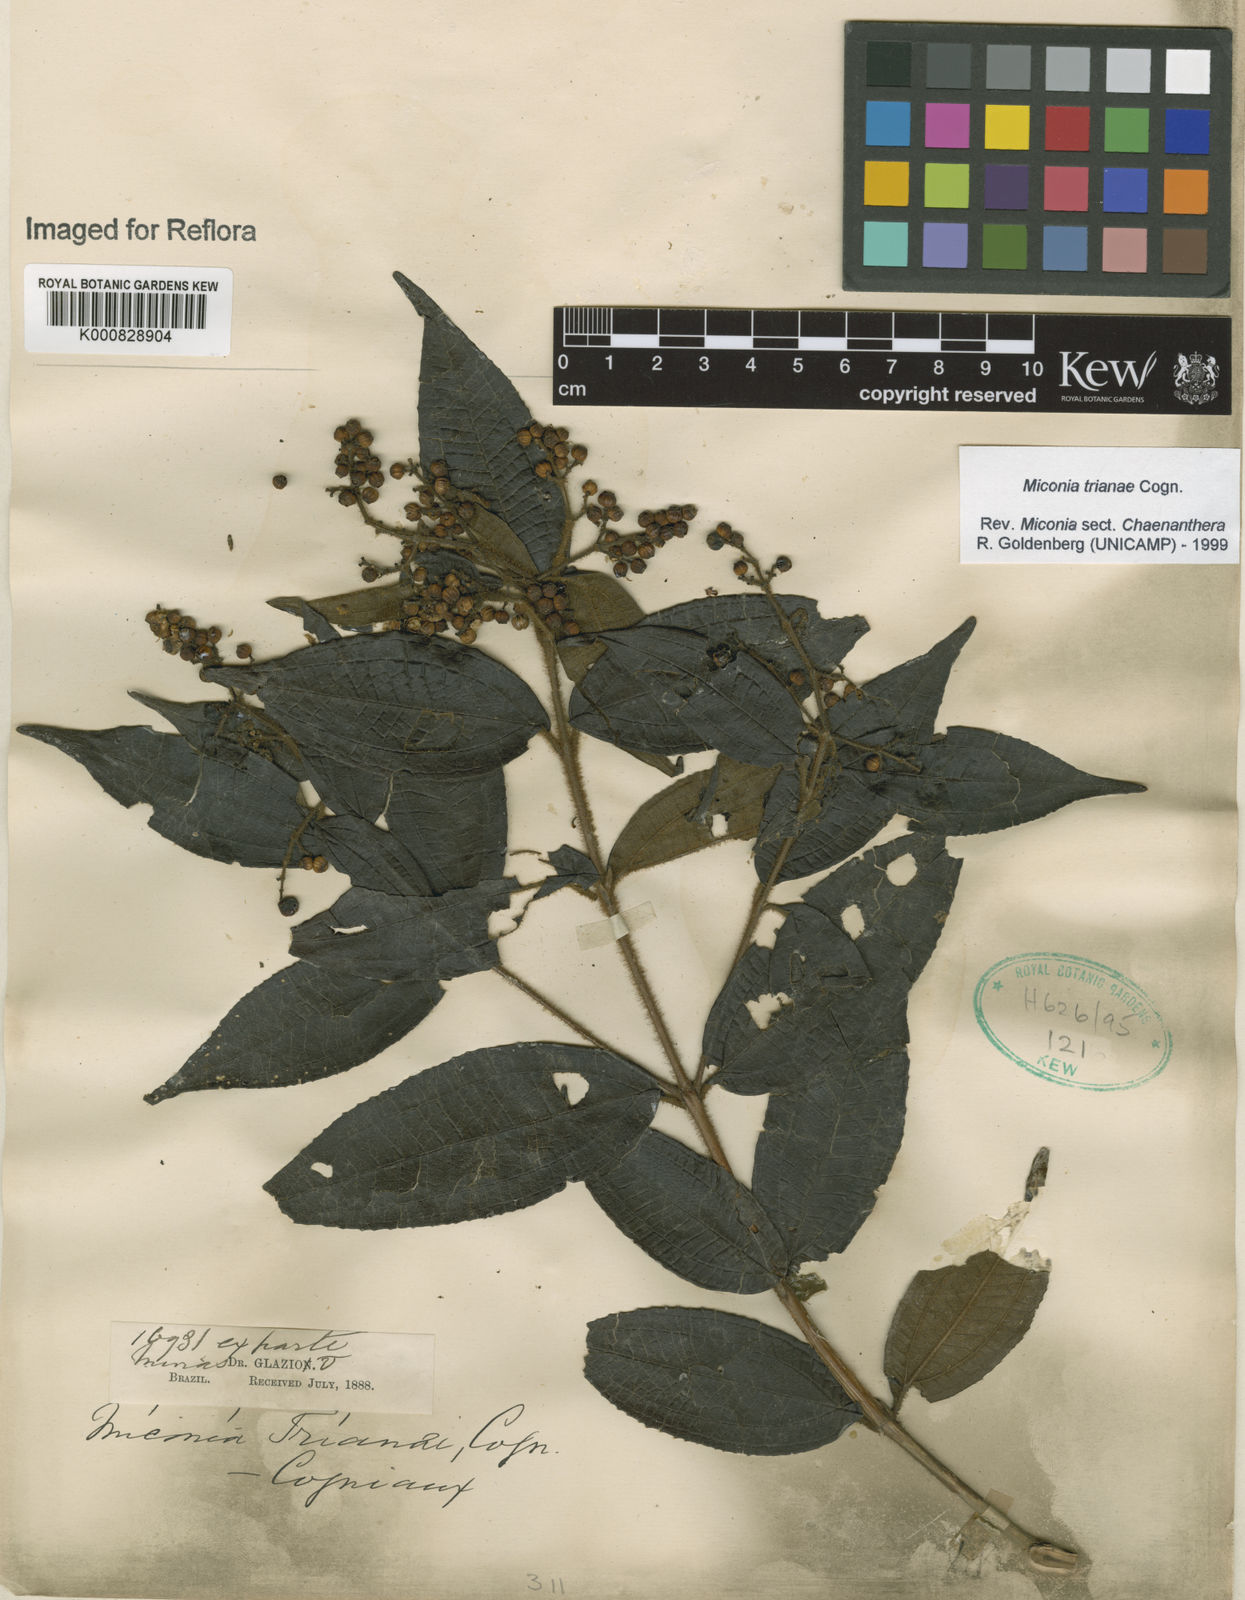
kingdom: Plantae
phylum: Tracheophyta
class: Magnoliopsida
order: Myrtales
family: Melastomataceae
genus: Miconia
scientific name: Miconia trianae
